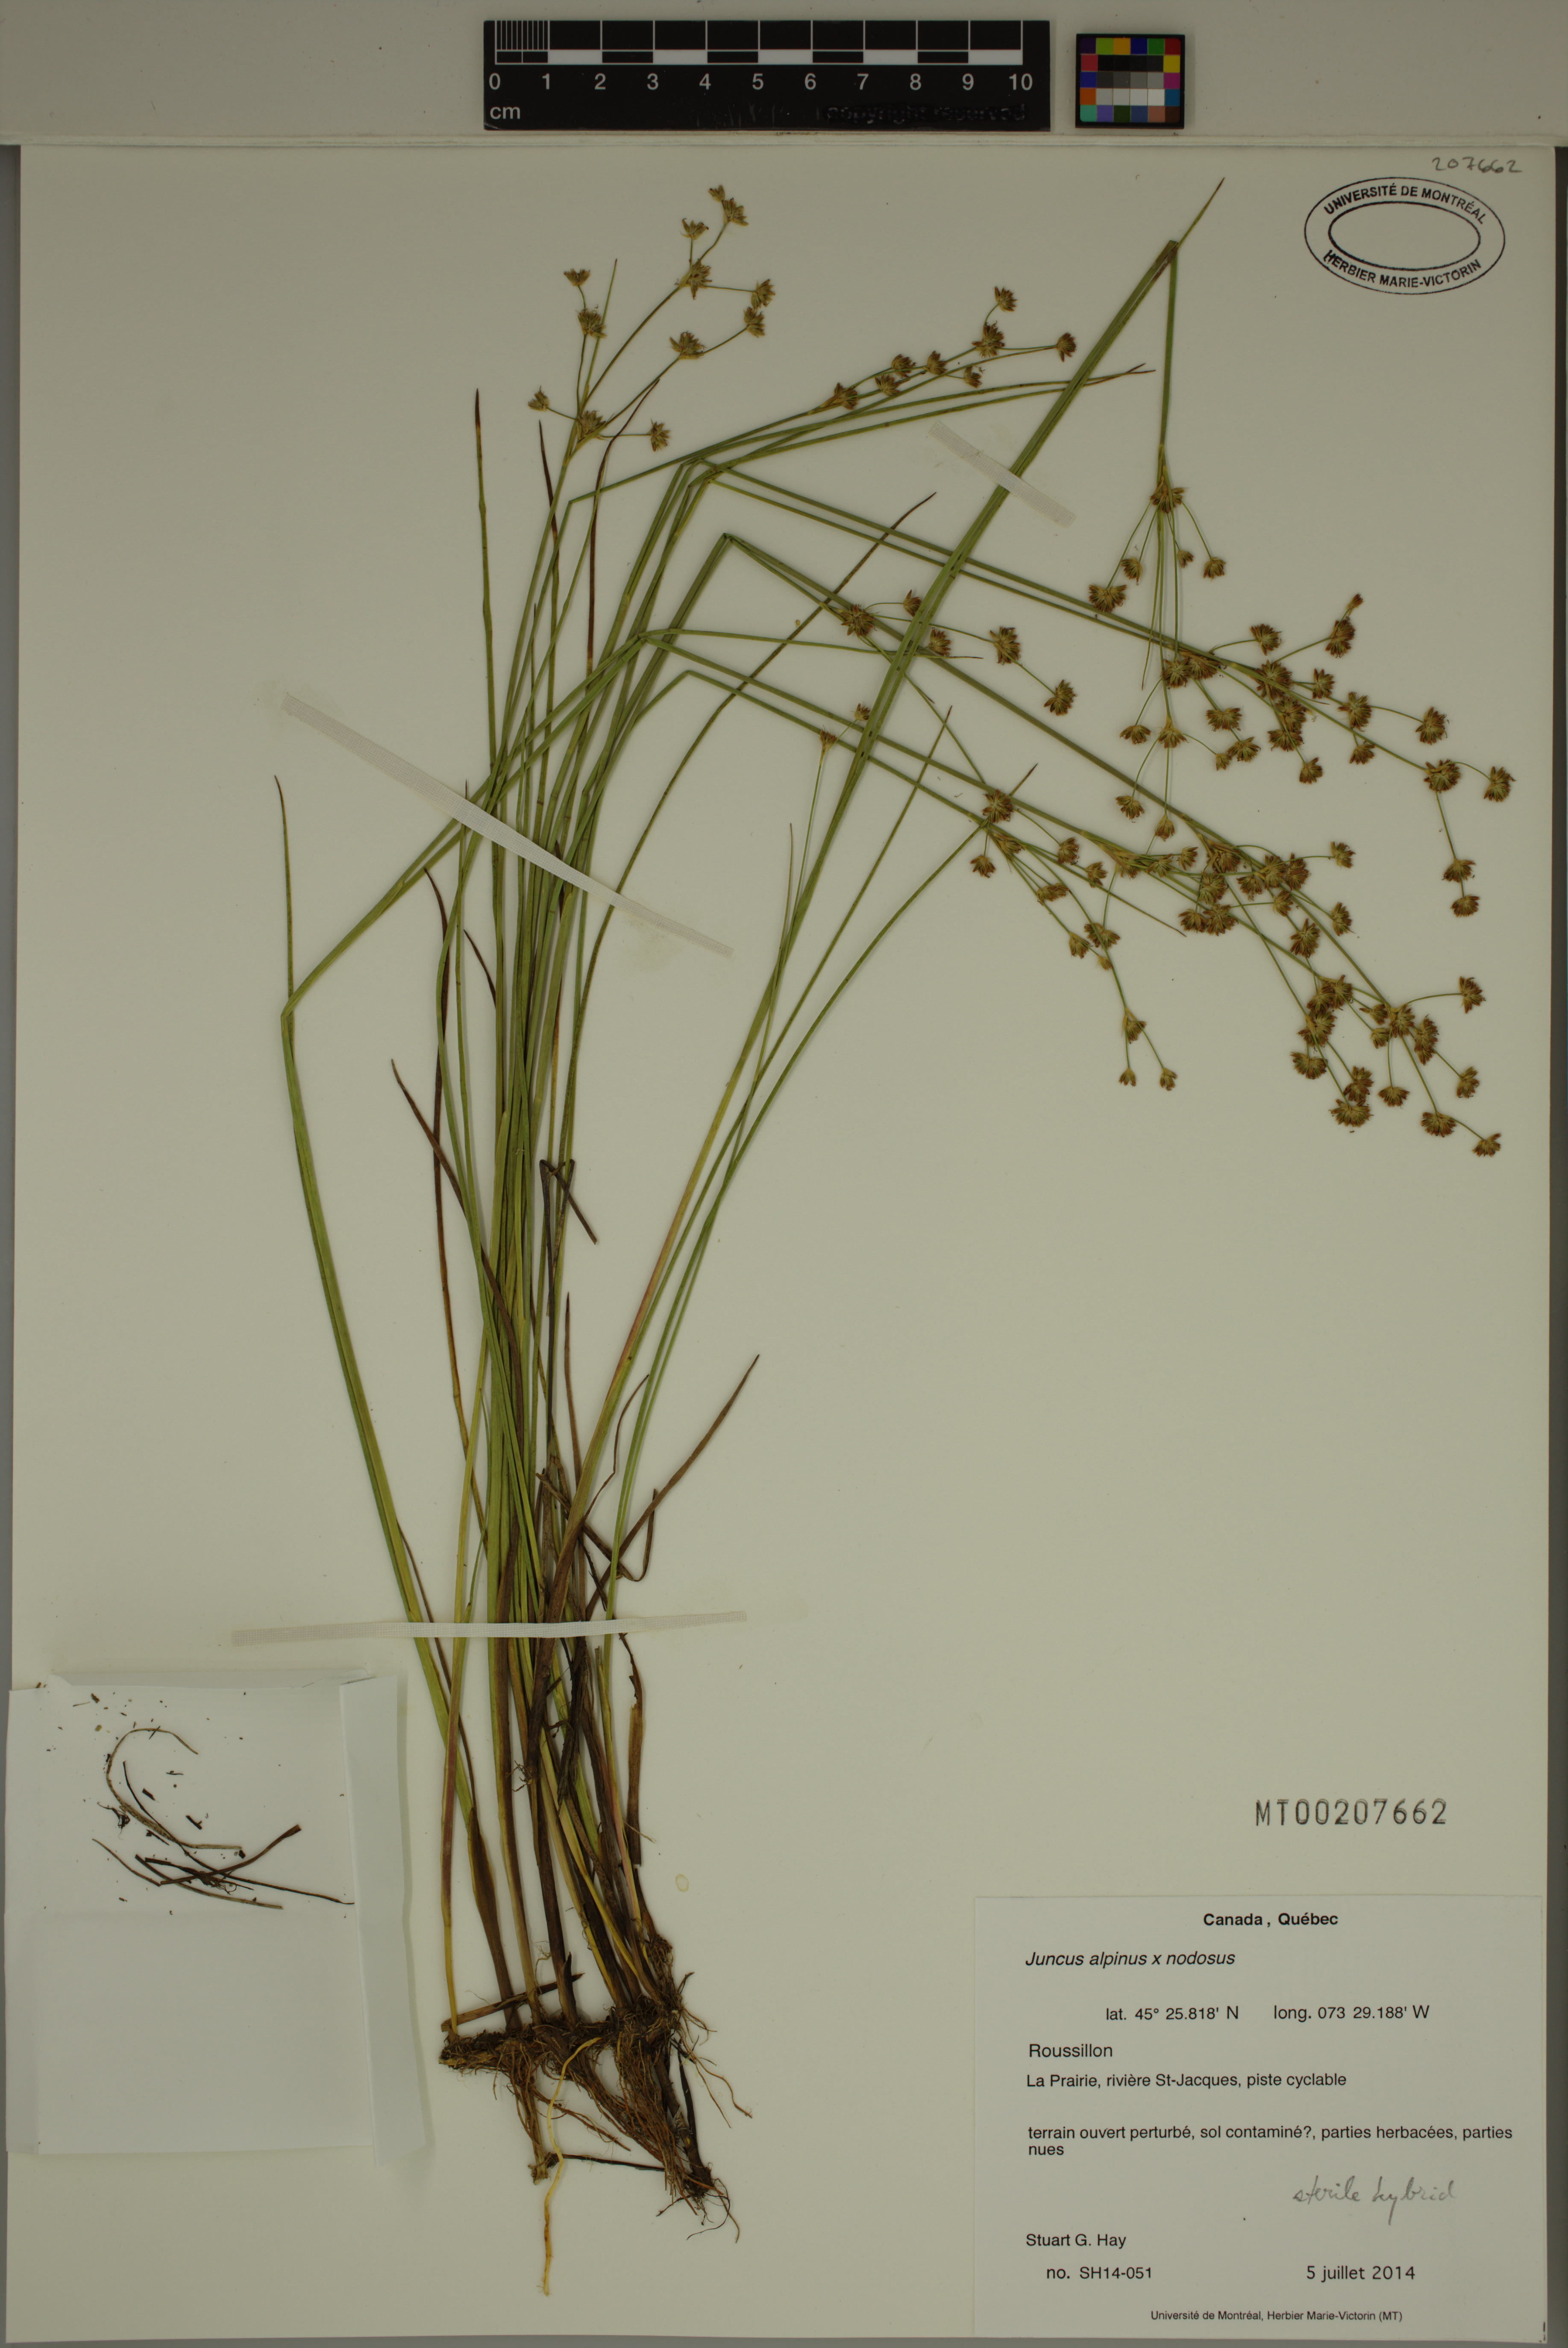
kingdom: Plantae
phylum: Tracheophyta
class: Liliopsida
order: Poales
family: Juncaceae
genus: Juncus
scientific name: Juncus nodosiformis
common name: Hybrid rush
